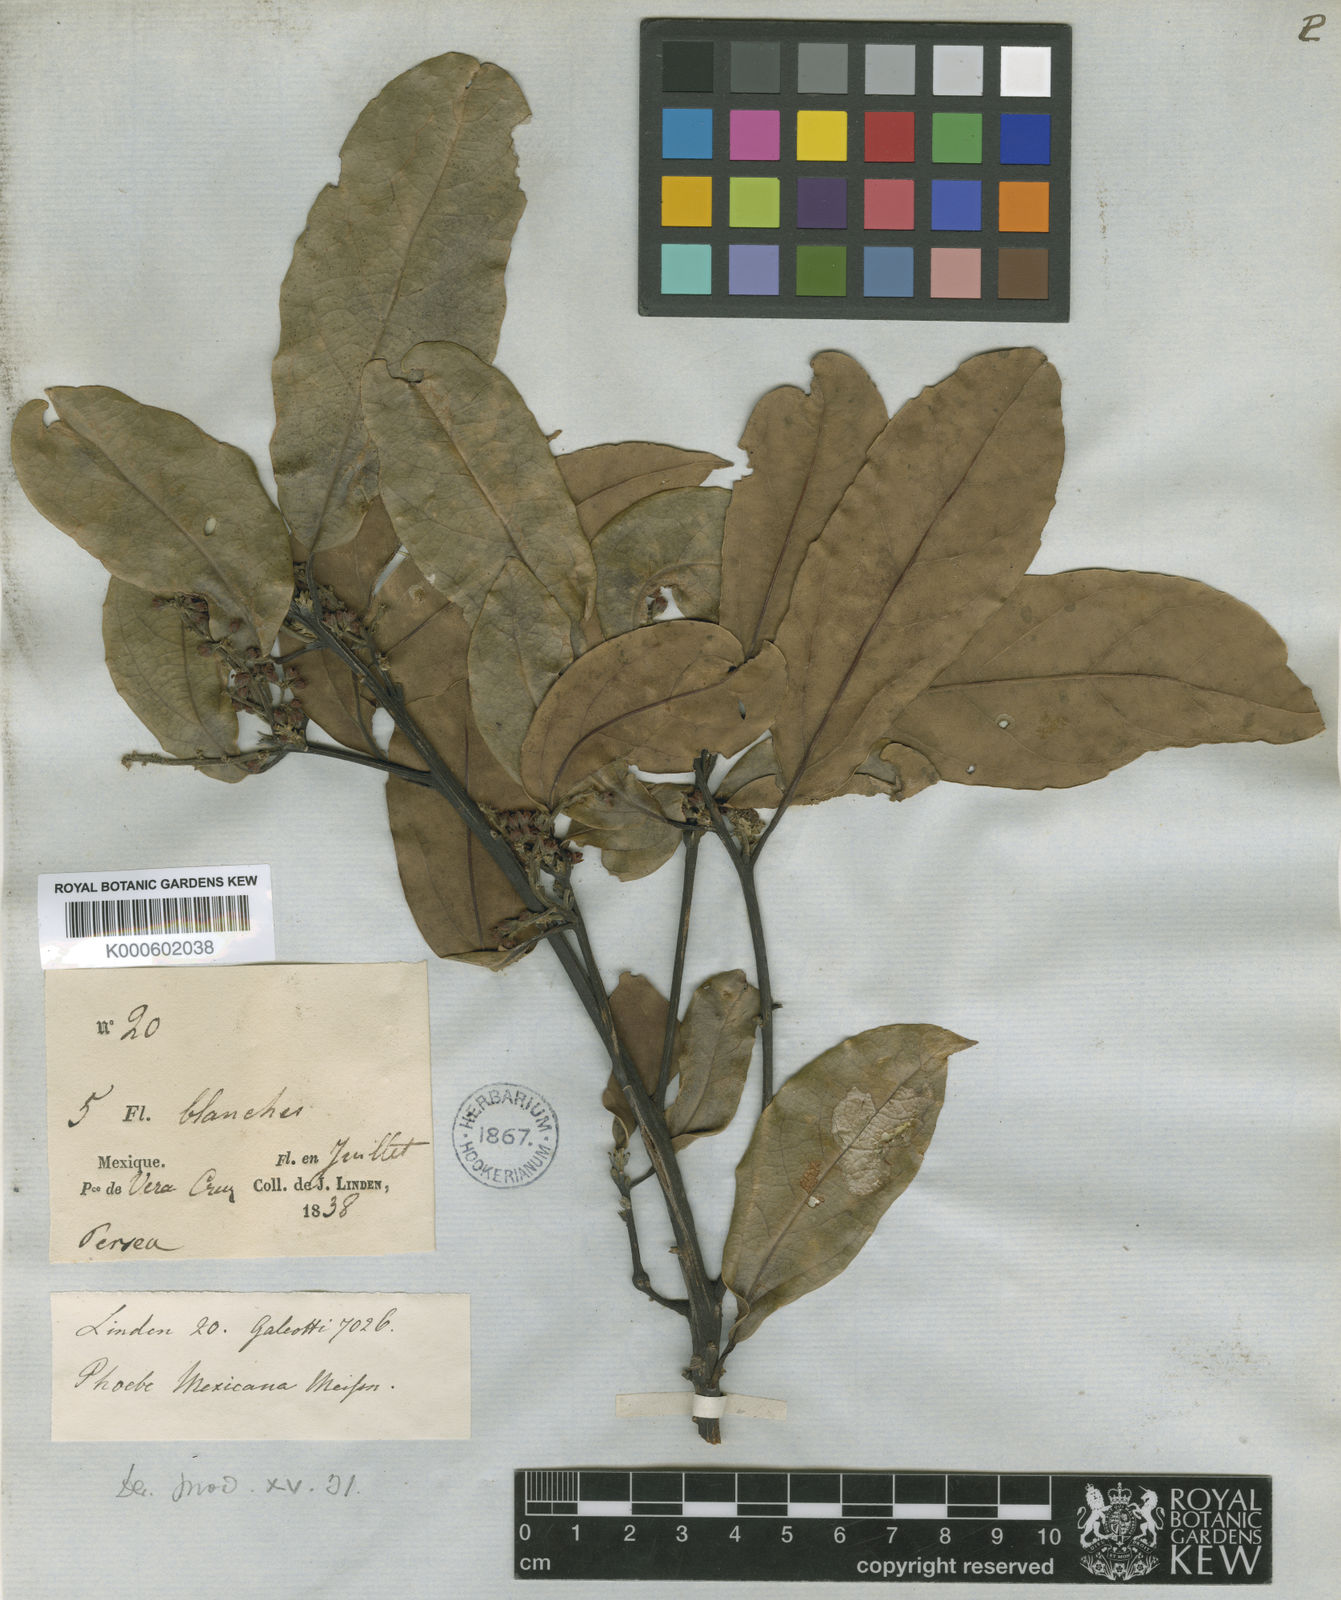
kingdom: Plantae
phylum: Tracheophyta
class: Magnoliopsida
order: Laurales
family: Lauraceae
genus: Aiouea
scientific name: Aiouea montana
